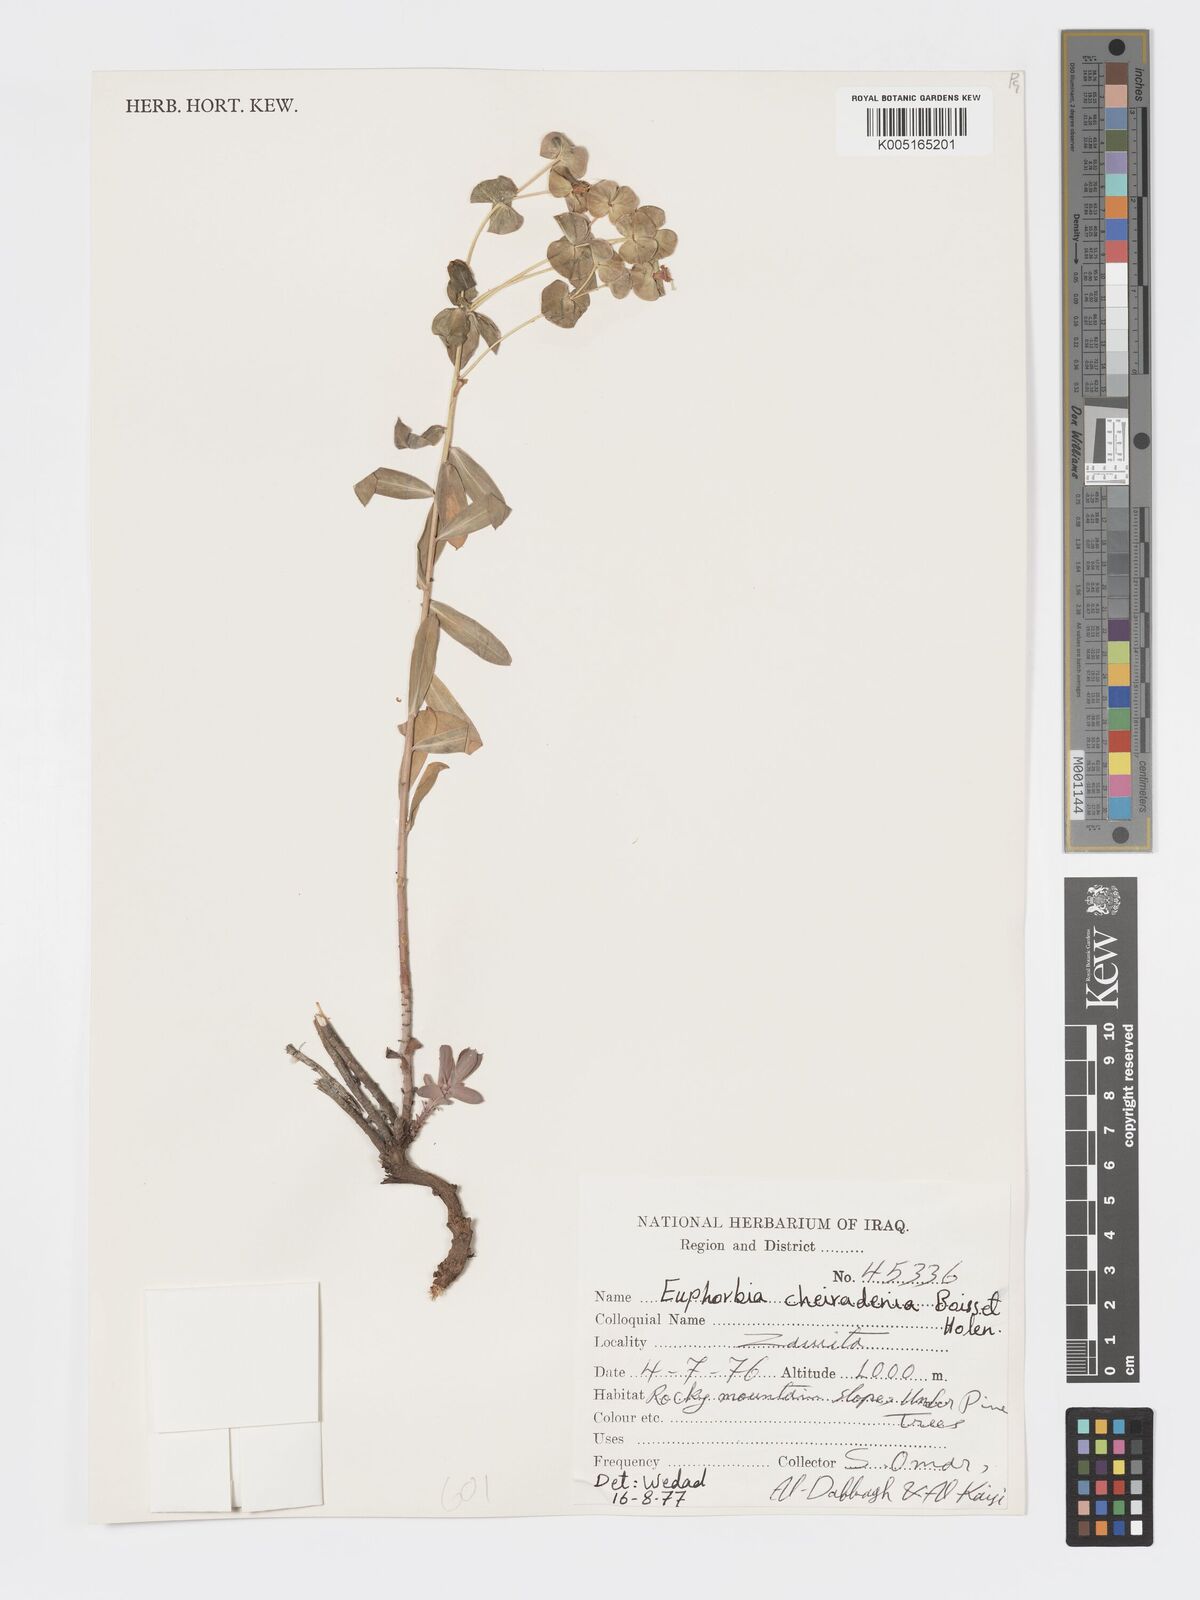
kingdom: Plantae
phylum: Tracheophyta
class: Magnoliopsida
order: Malpighiales
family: Euphorbiaceae
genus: Euphorbia
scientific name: Euphorbia cheiradenia
